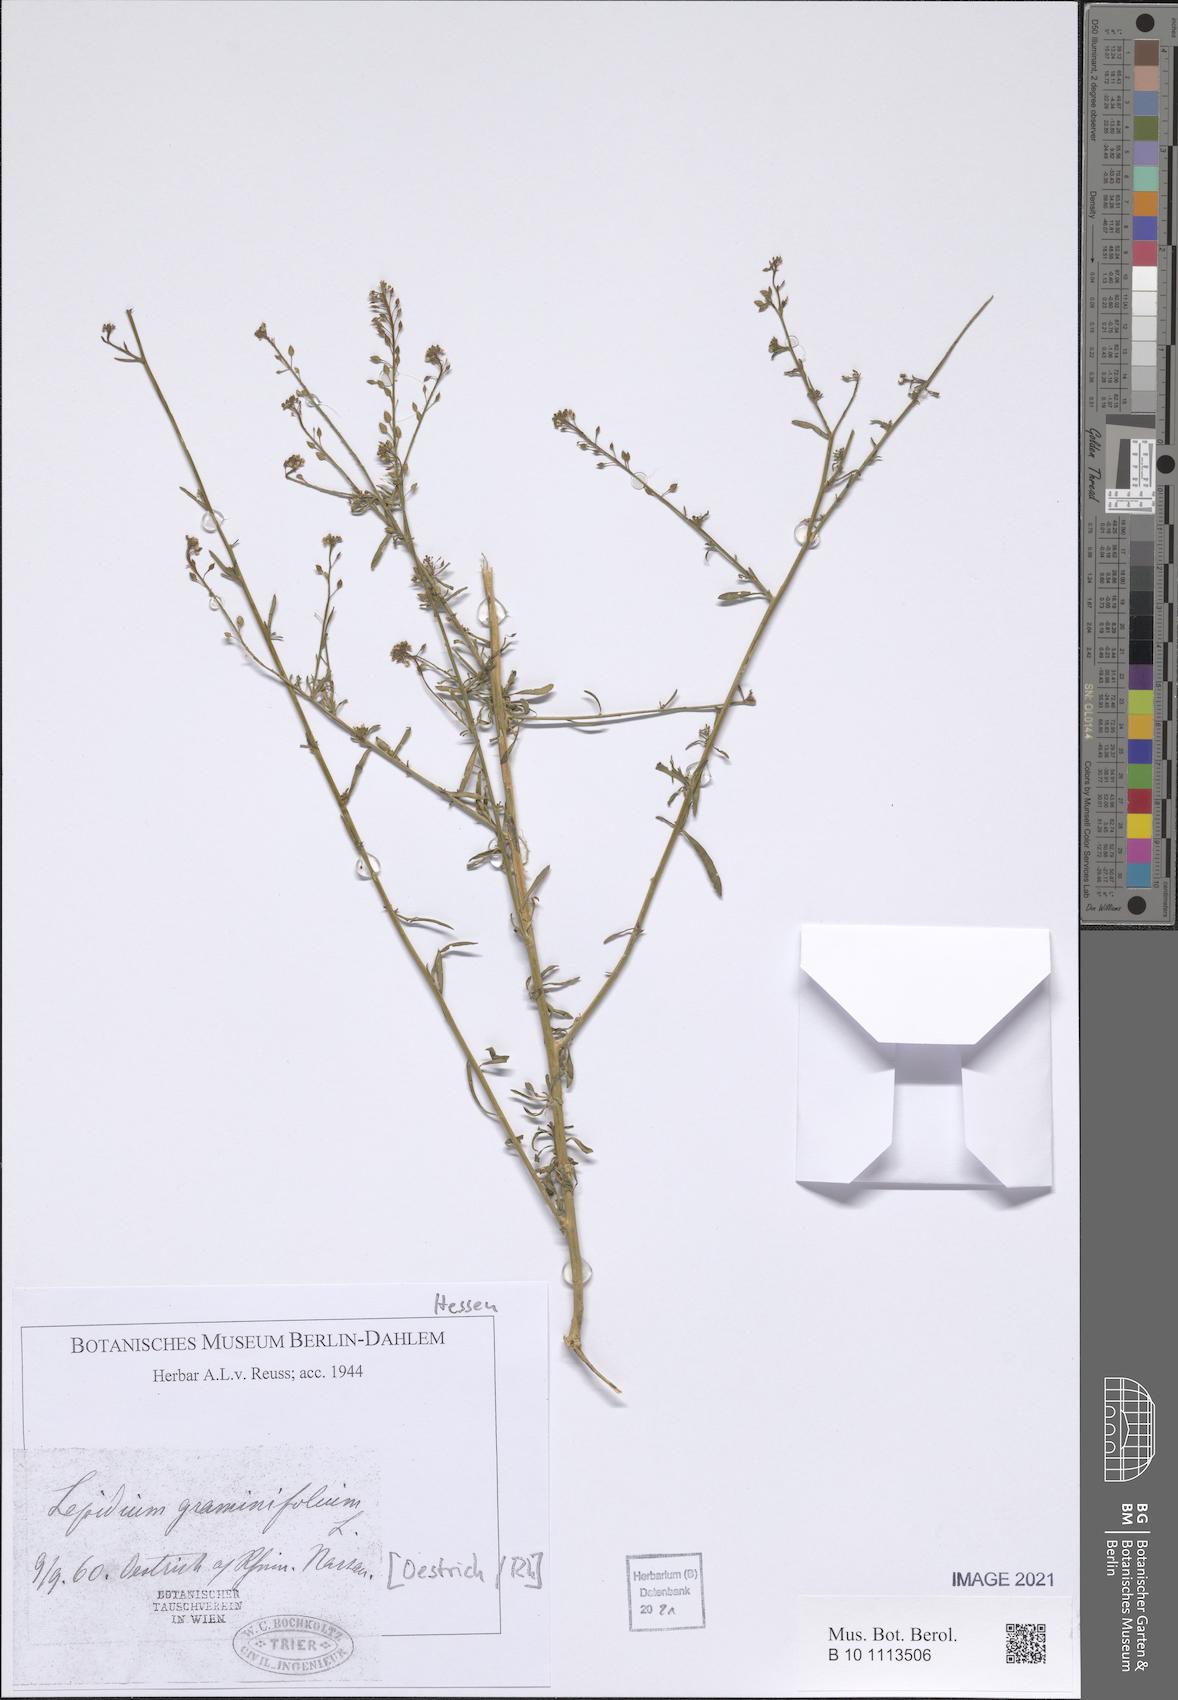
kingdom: Plantae
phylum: Tracheophyta
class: Magnoliopsida
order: Brassicales
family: Brassicaceae
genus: Lepidium
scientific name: Lepidium graminifolium
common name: Tall pepperwort
